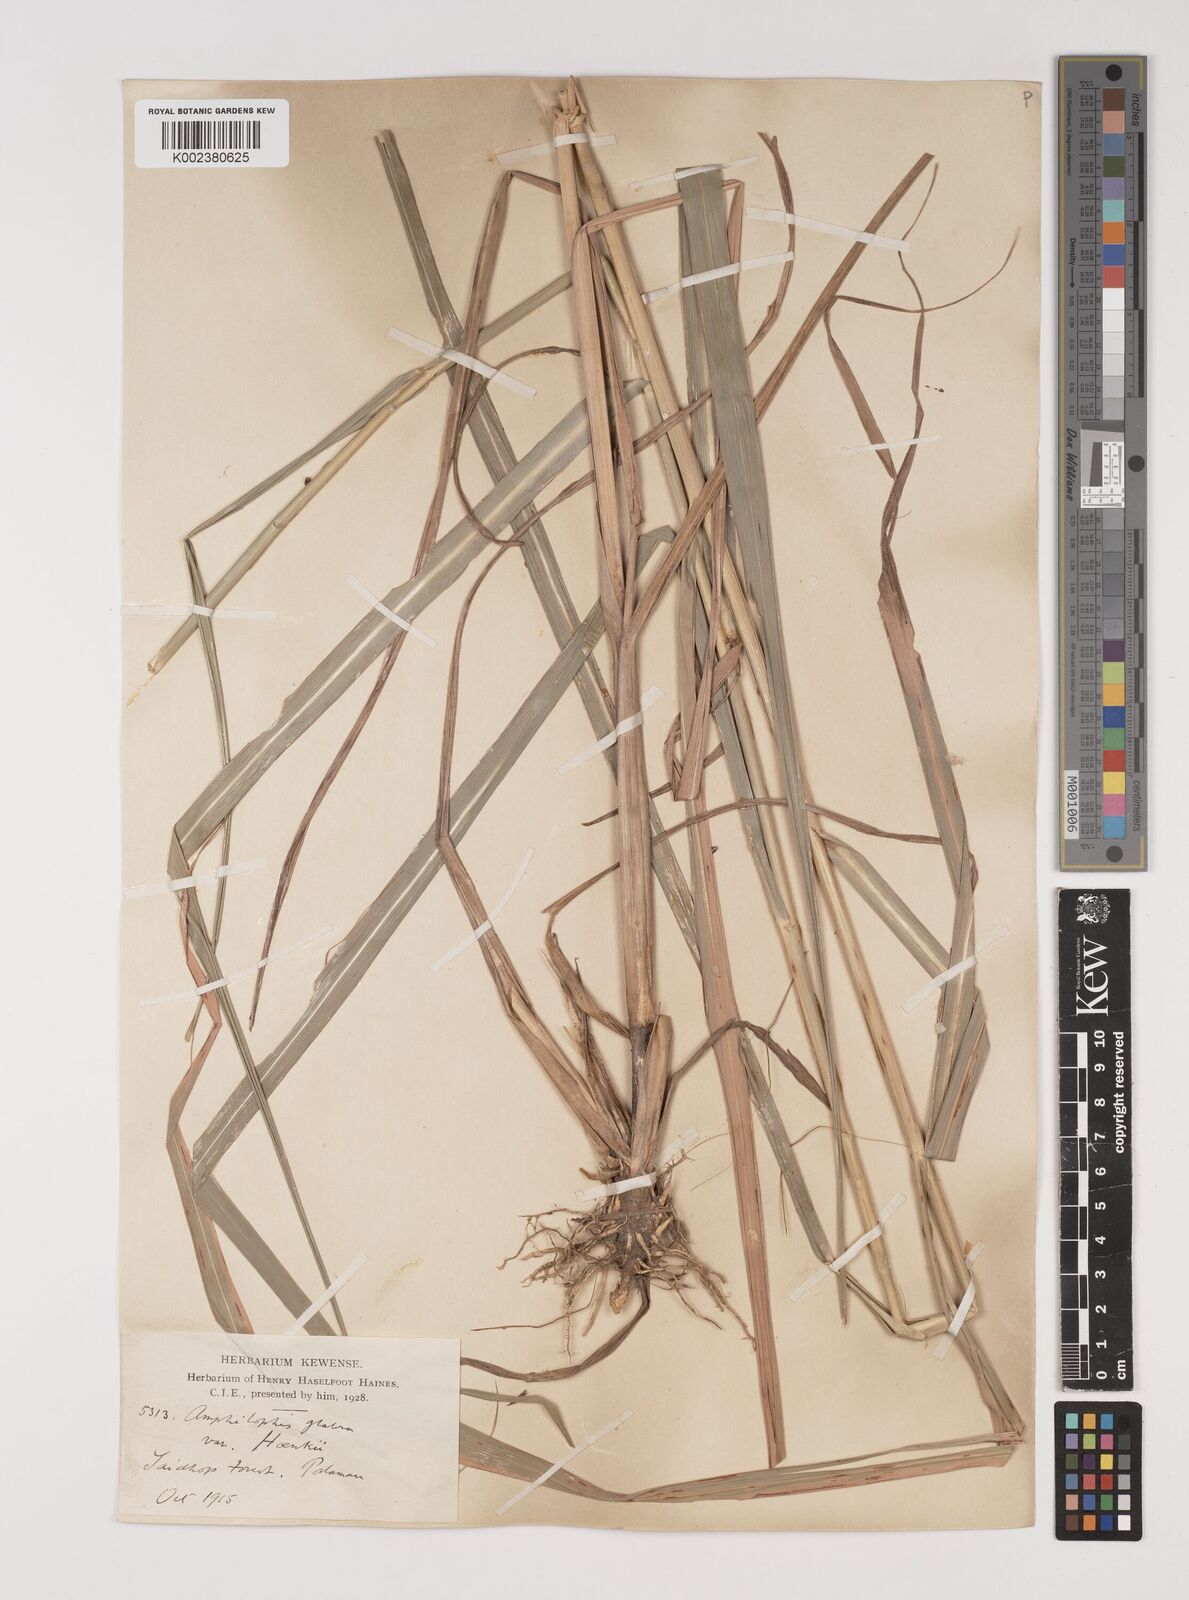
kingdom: Plantae
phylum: Tracheophyta
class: Liliopsida
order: Poales
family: Poaceae
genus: Bothriochloa
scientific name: Bothriochloa bladhii
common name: Caucasian bluestem
